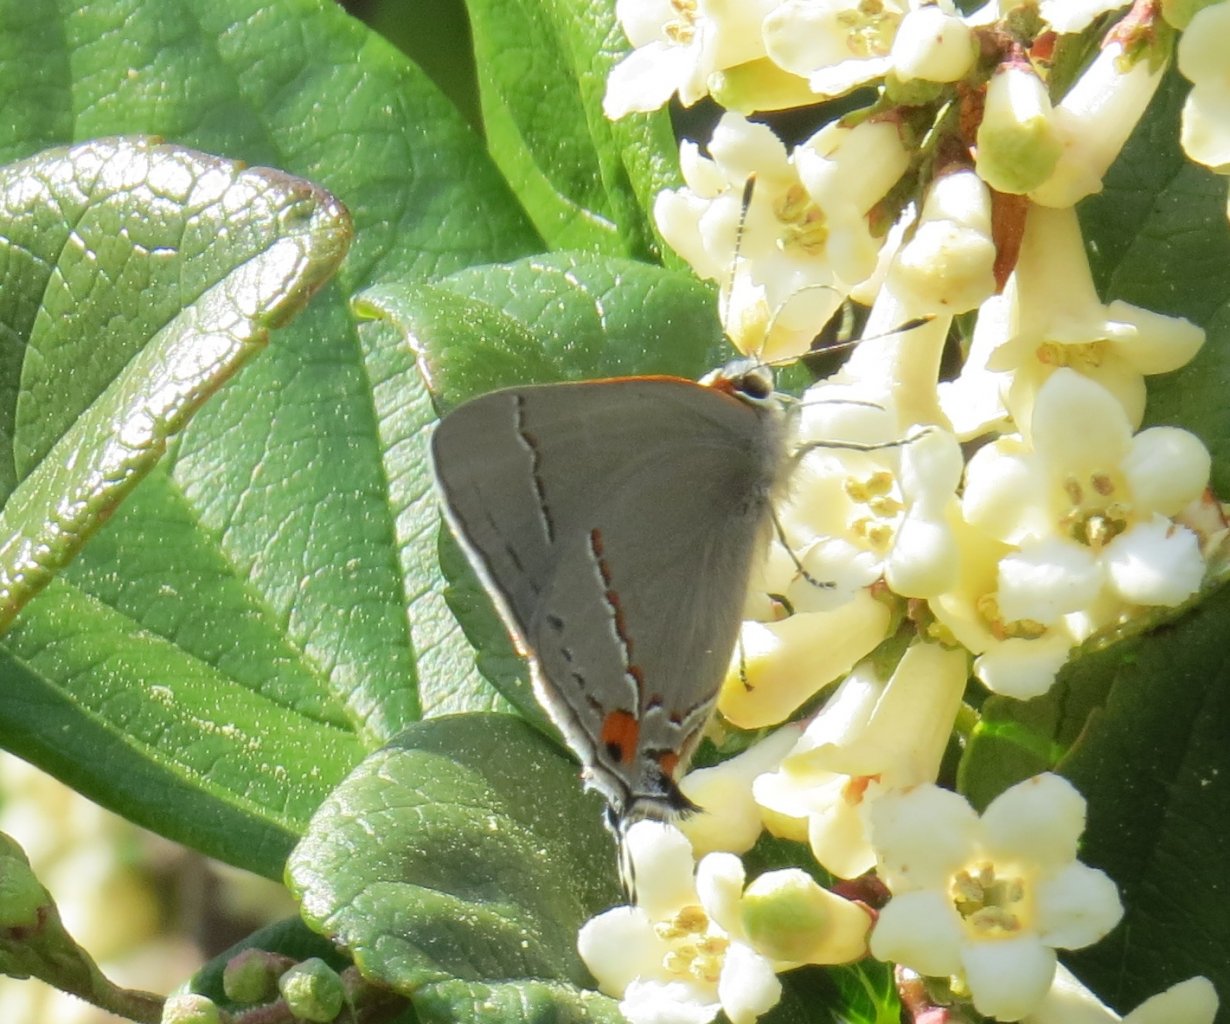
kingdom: Animalia
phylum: Arthropoda
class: Insecta
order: Lepidoptera
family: Lycaenidae
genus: Strymon
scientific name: Strymon melinus
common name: Gray Hairstreak
